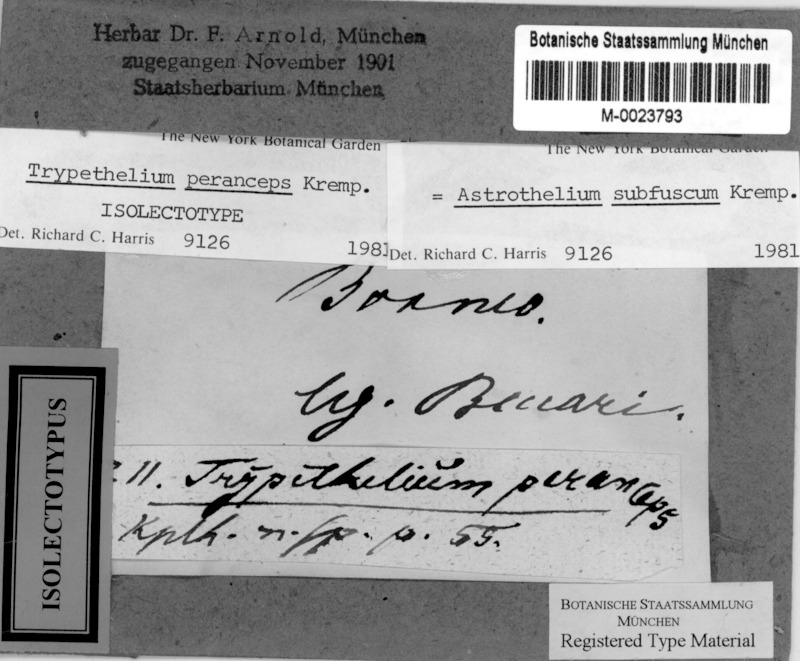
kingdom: Fungi
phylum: Ascomycota
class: Dothideomycetes
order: Trypetheliales
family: Trypetheliaceae
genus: Astrothelium
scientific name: Astrothelium subfuscum
